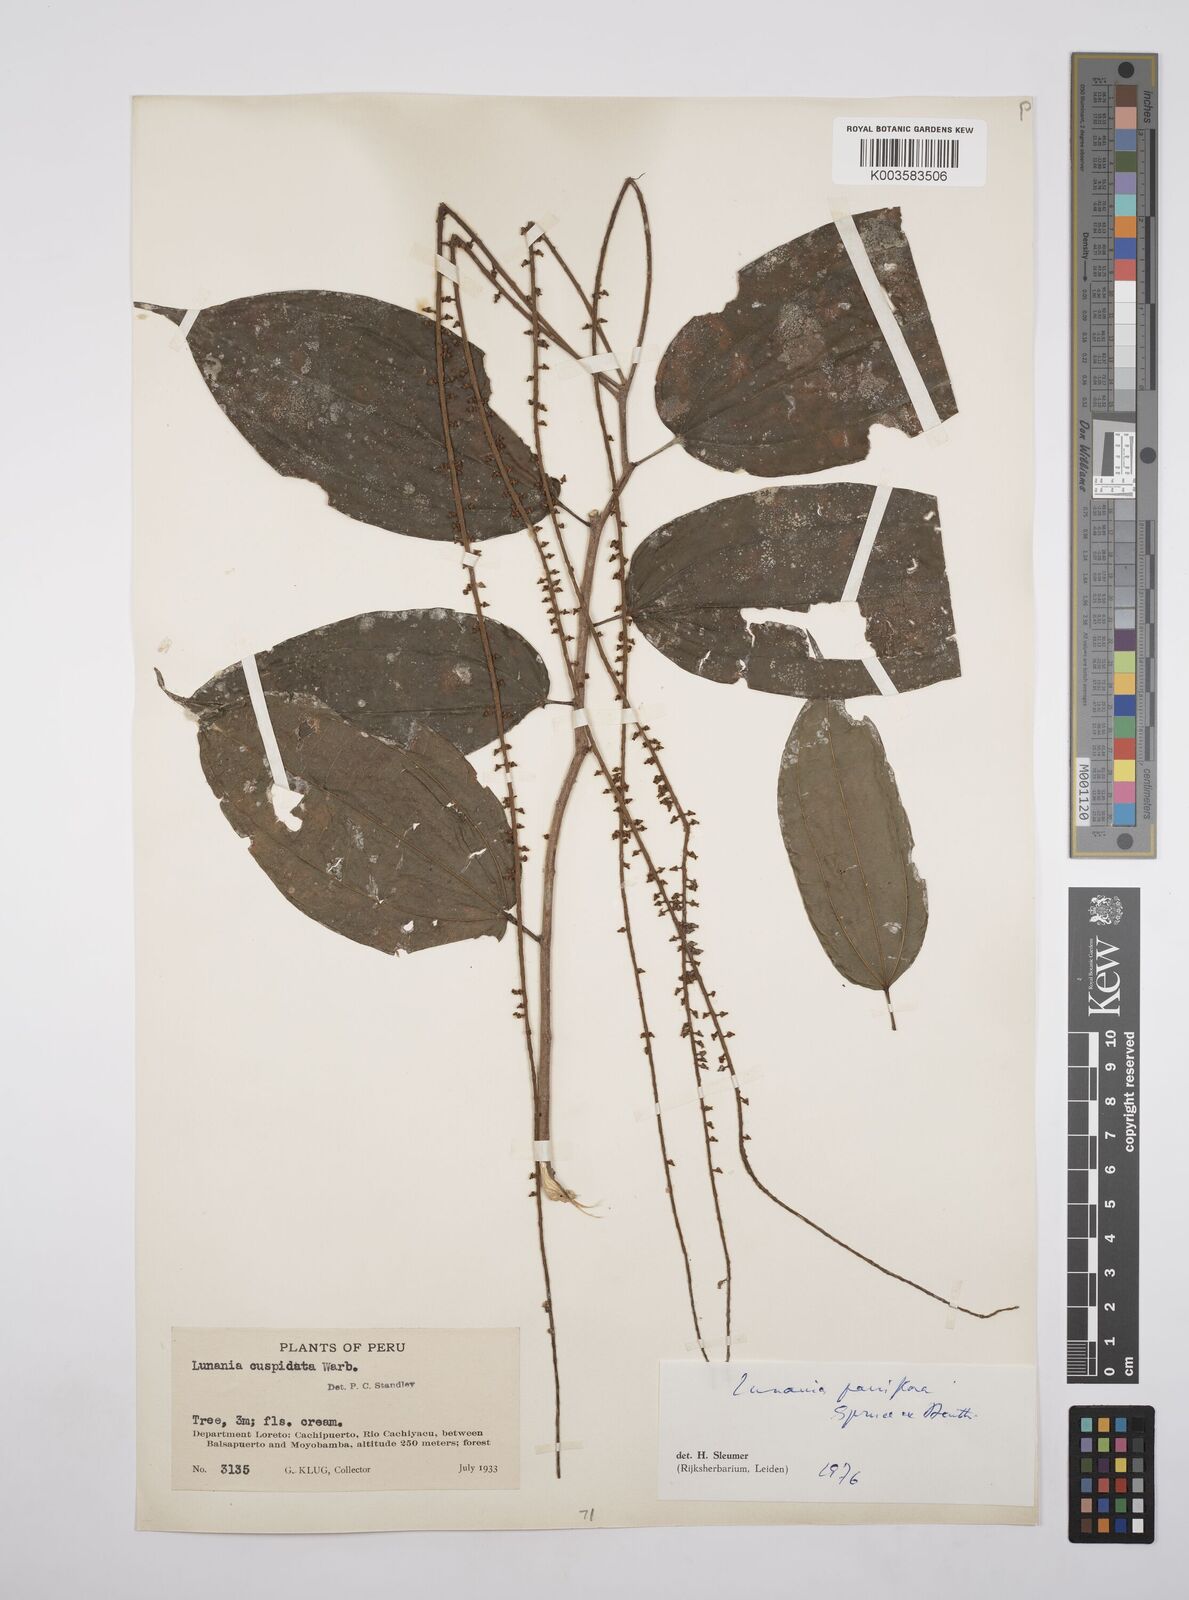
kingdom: Plantae
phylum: Tracheophyta
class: Magnoliopsida
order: Malpighiales
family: Salicaceae
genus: Lunania
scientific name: Lunania parviflora
